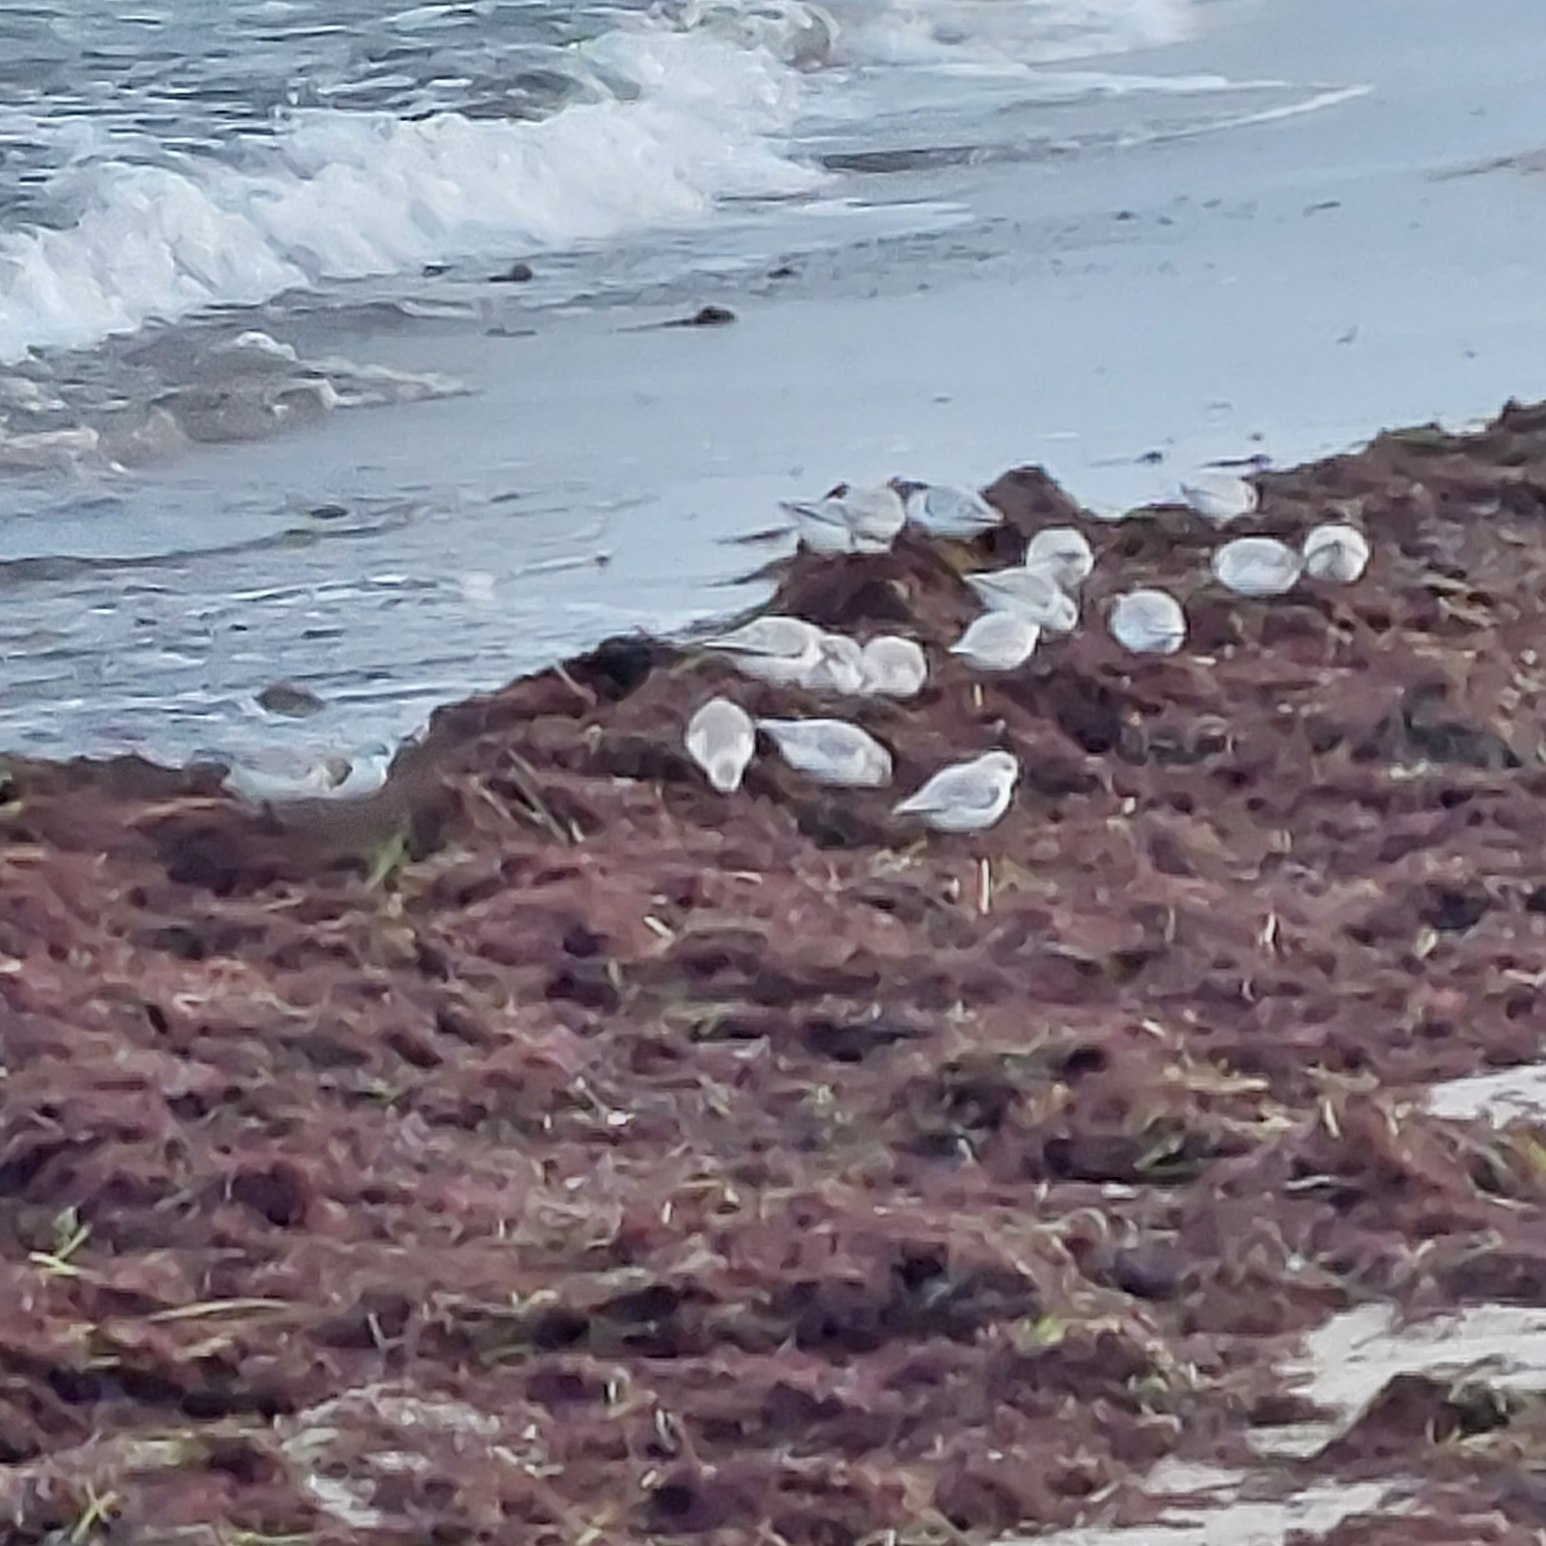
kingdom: Animalia
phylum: Chordata
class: Aves
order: Charadriiformes
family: Scolopacidae
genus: Calidris
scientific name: Calidris alba
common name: Sandløber
